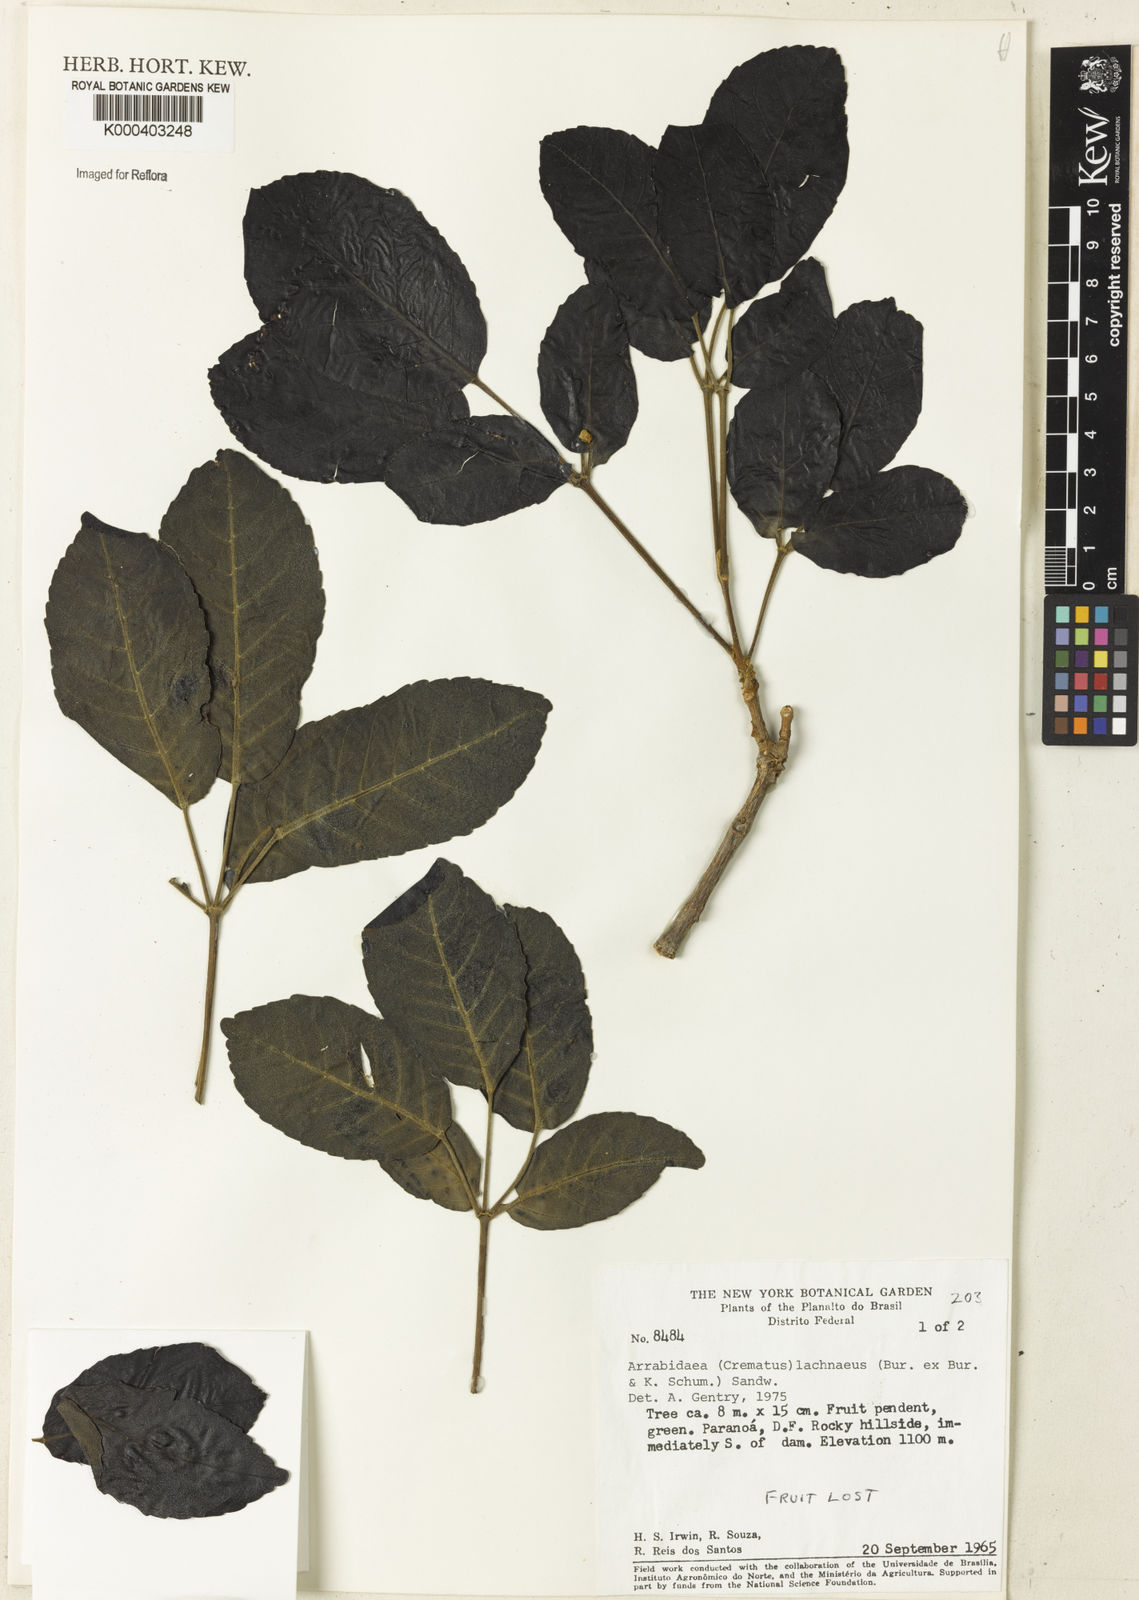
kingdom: Plantae
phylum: Tracheophyta
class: Magnoliopsida
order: Lamiales
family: Bignoniaceae
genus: Cuspidaria
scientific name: Cuspidaria lachnaea
